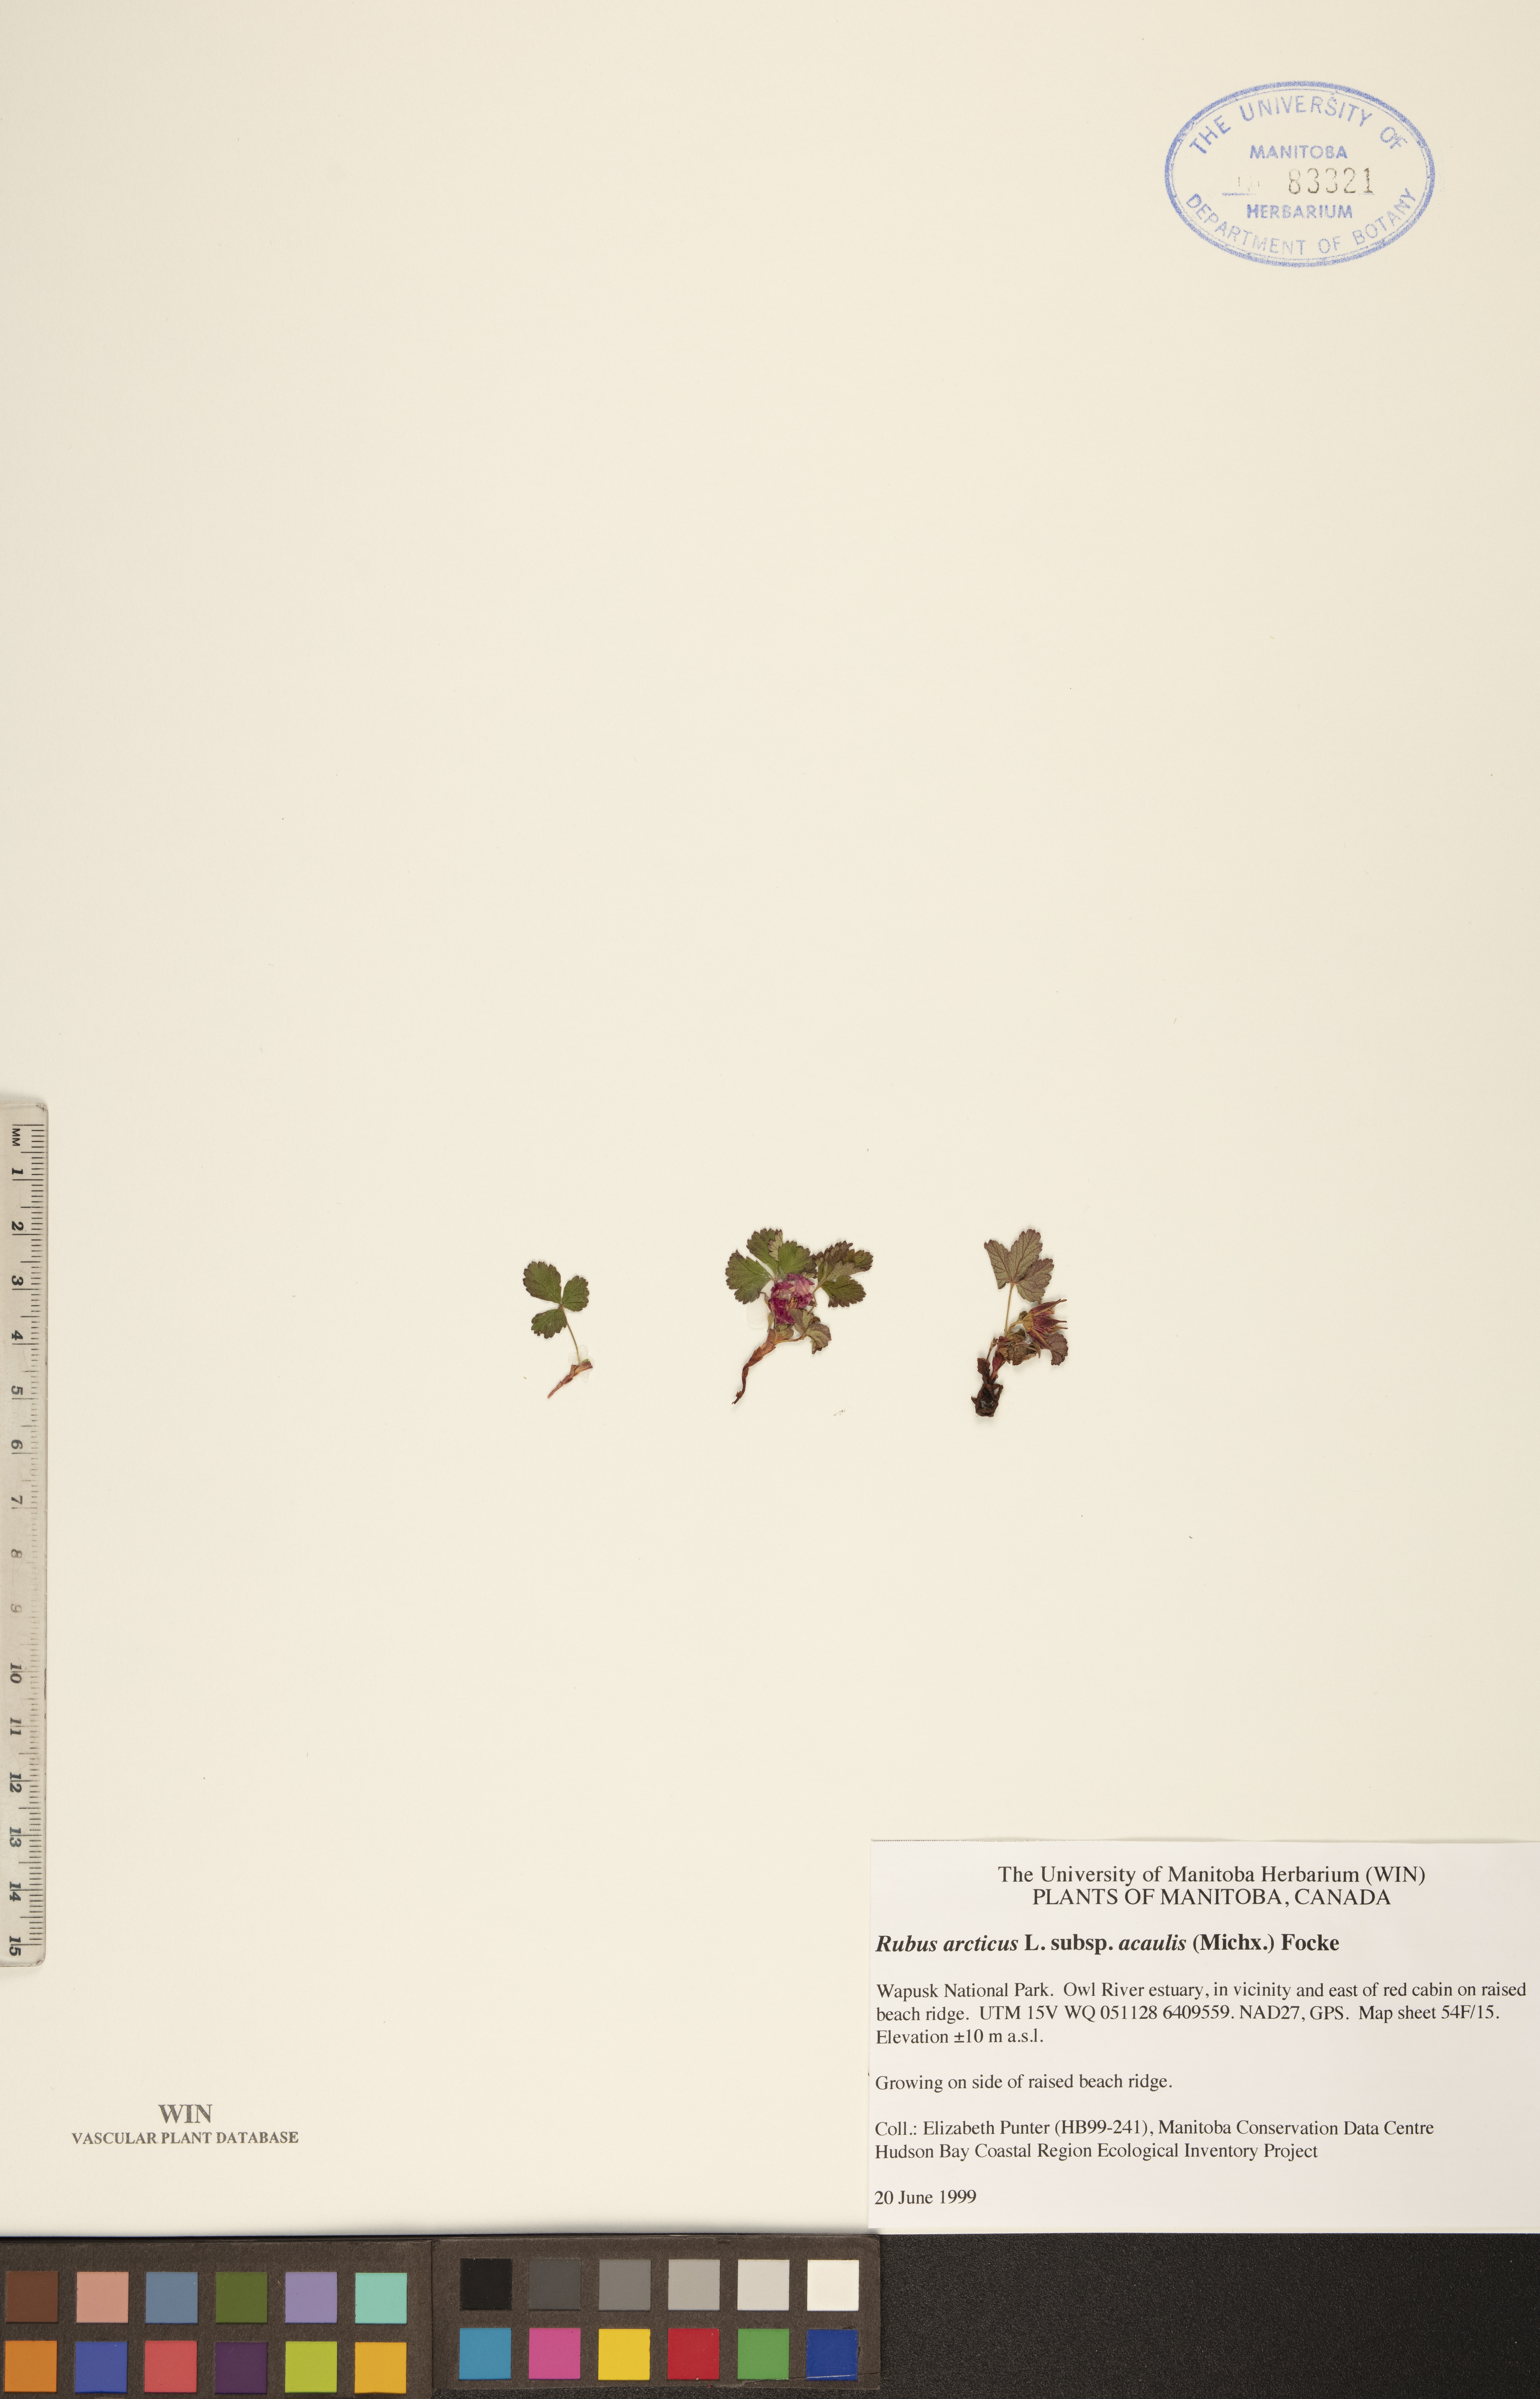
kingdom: Plantae
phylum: Tracheophyta
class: Magnoliopsida
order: Rosales
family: Rosaceae
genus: Rubus
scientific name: Rubus arcticus
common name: Arctic bramble
